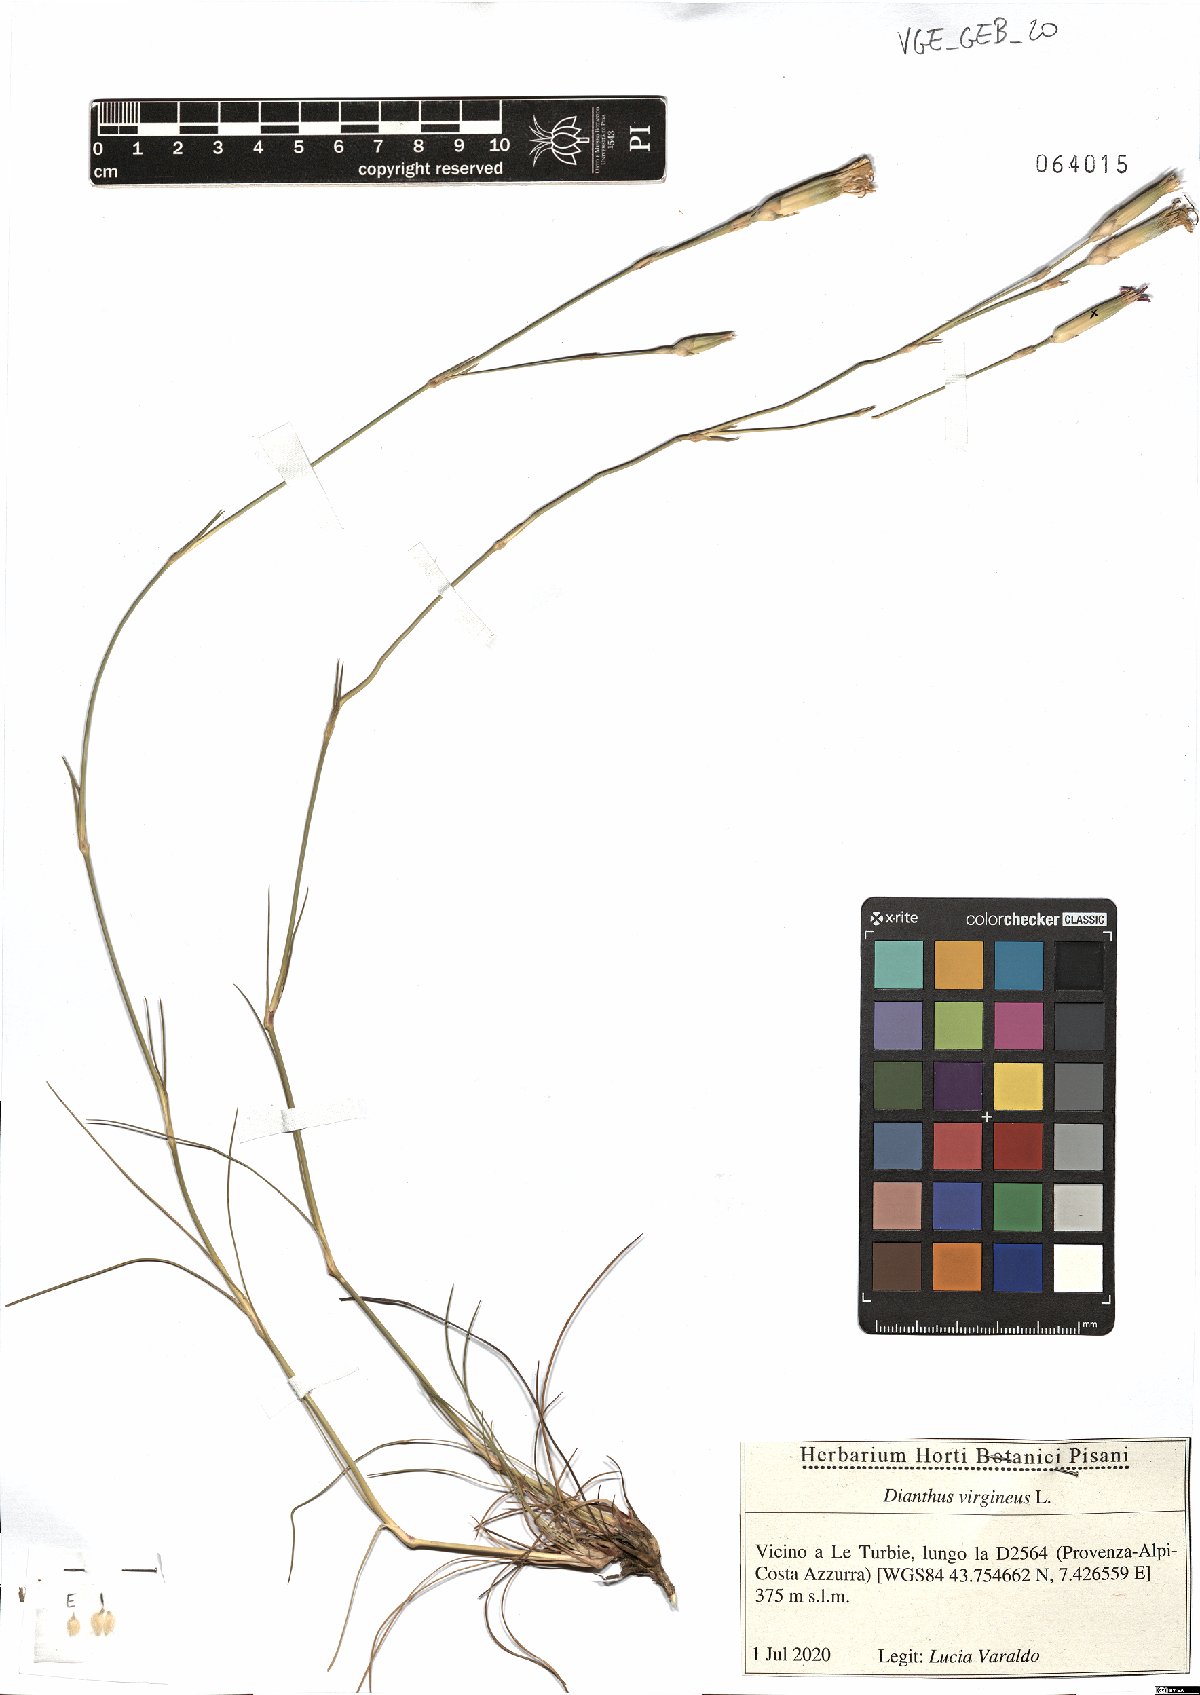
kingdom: Plantae
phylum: Tracheophyta
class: Magnoliopsida
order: Caryophyllales
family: Caryophyllaceae
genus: Dianthus
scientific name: Dianthus virgineus
